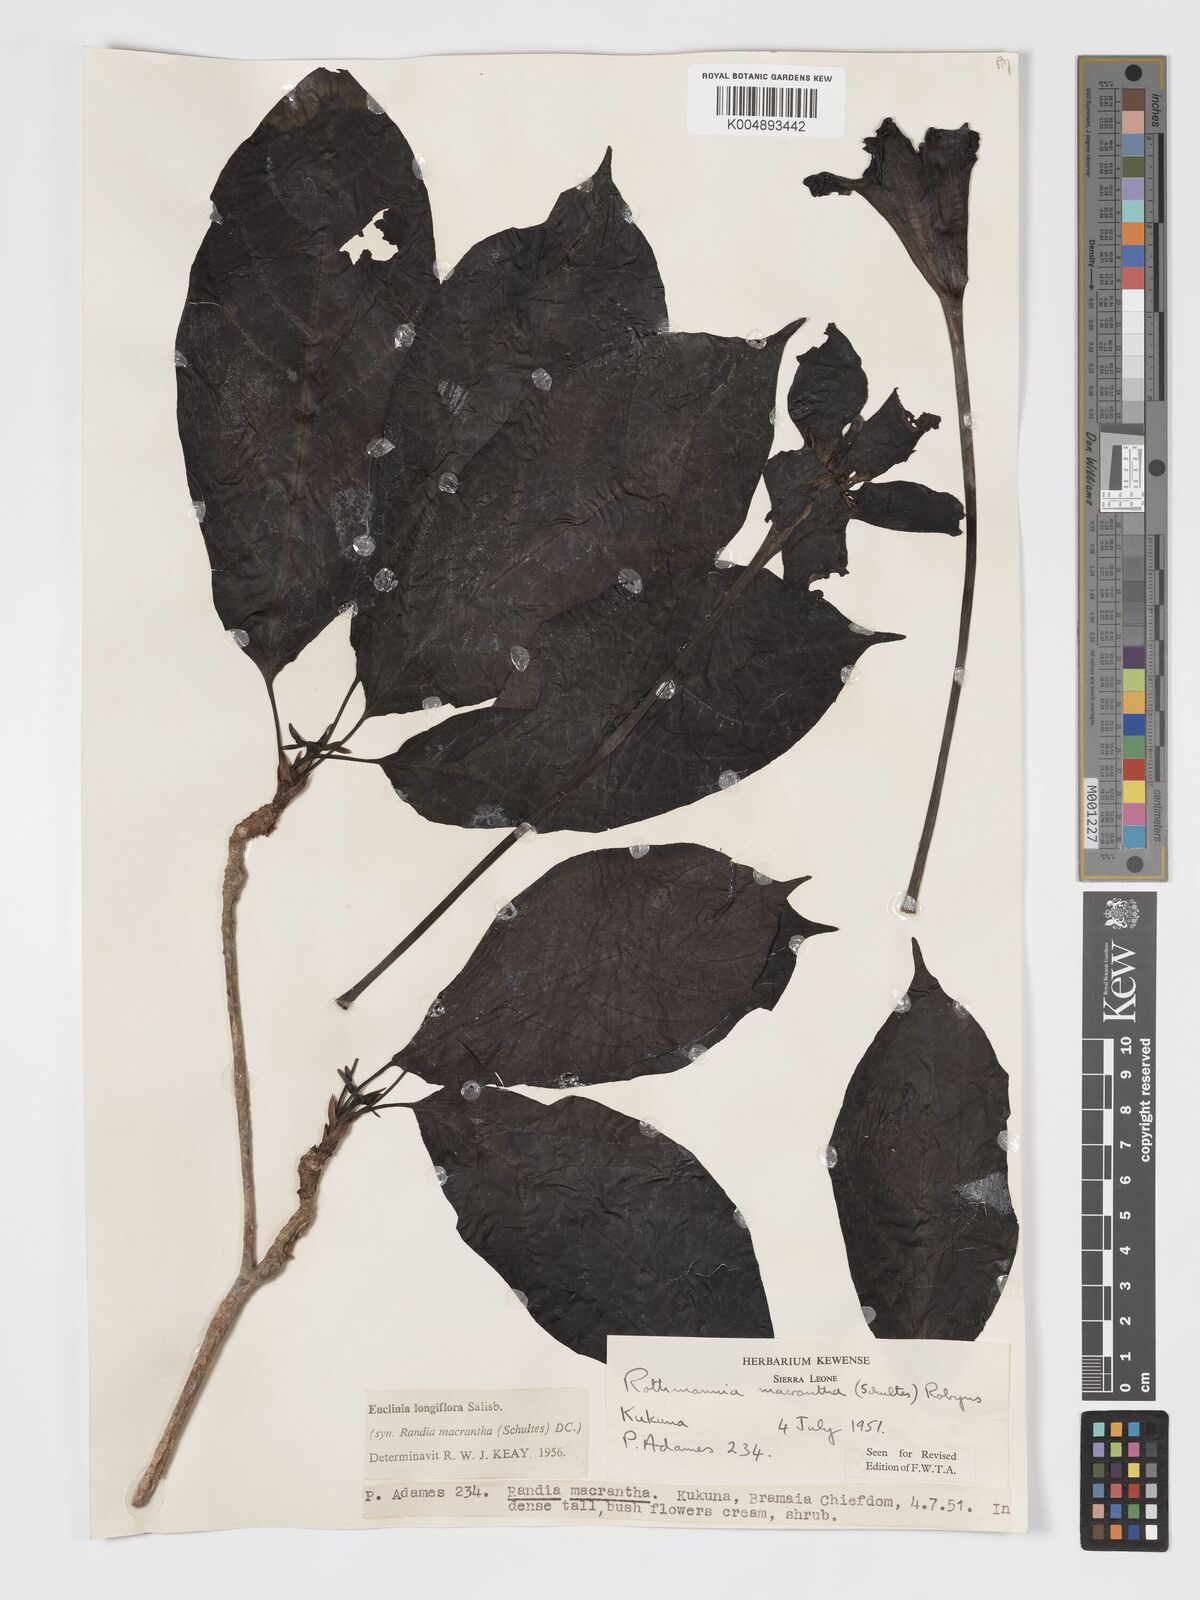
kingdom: Plantae
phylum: Tracheophyta
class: Magnoliopsida
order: Gentianales
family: Rubiaceae
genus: Euclinia
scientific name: Euclinia longiflora
